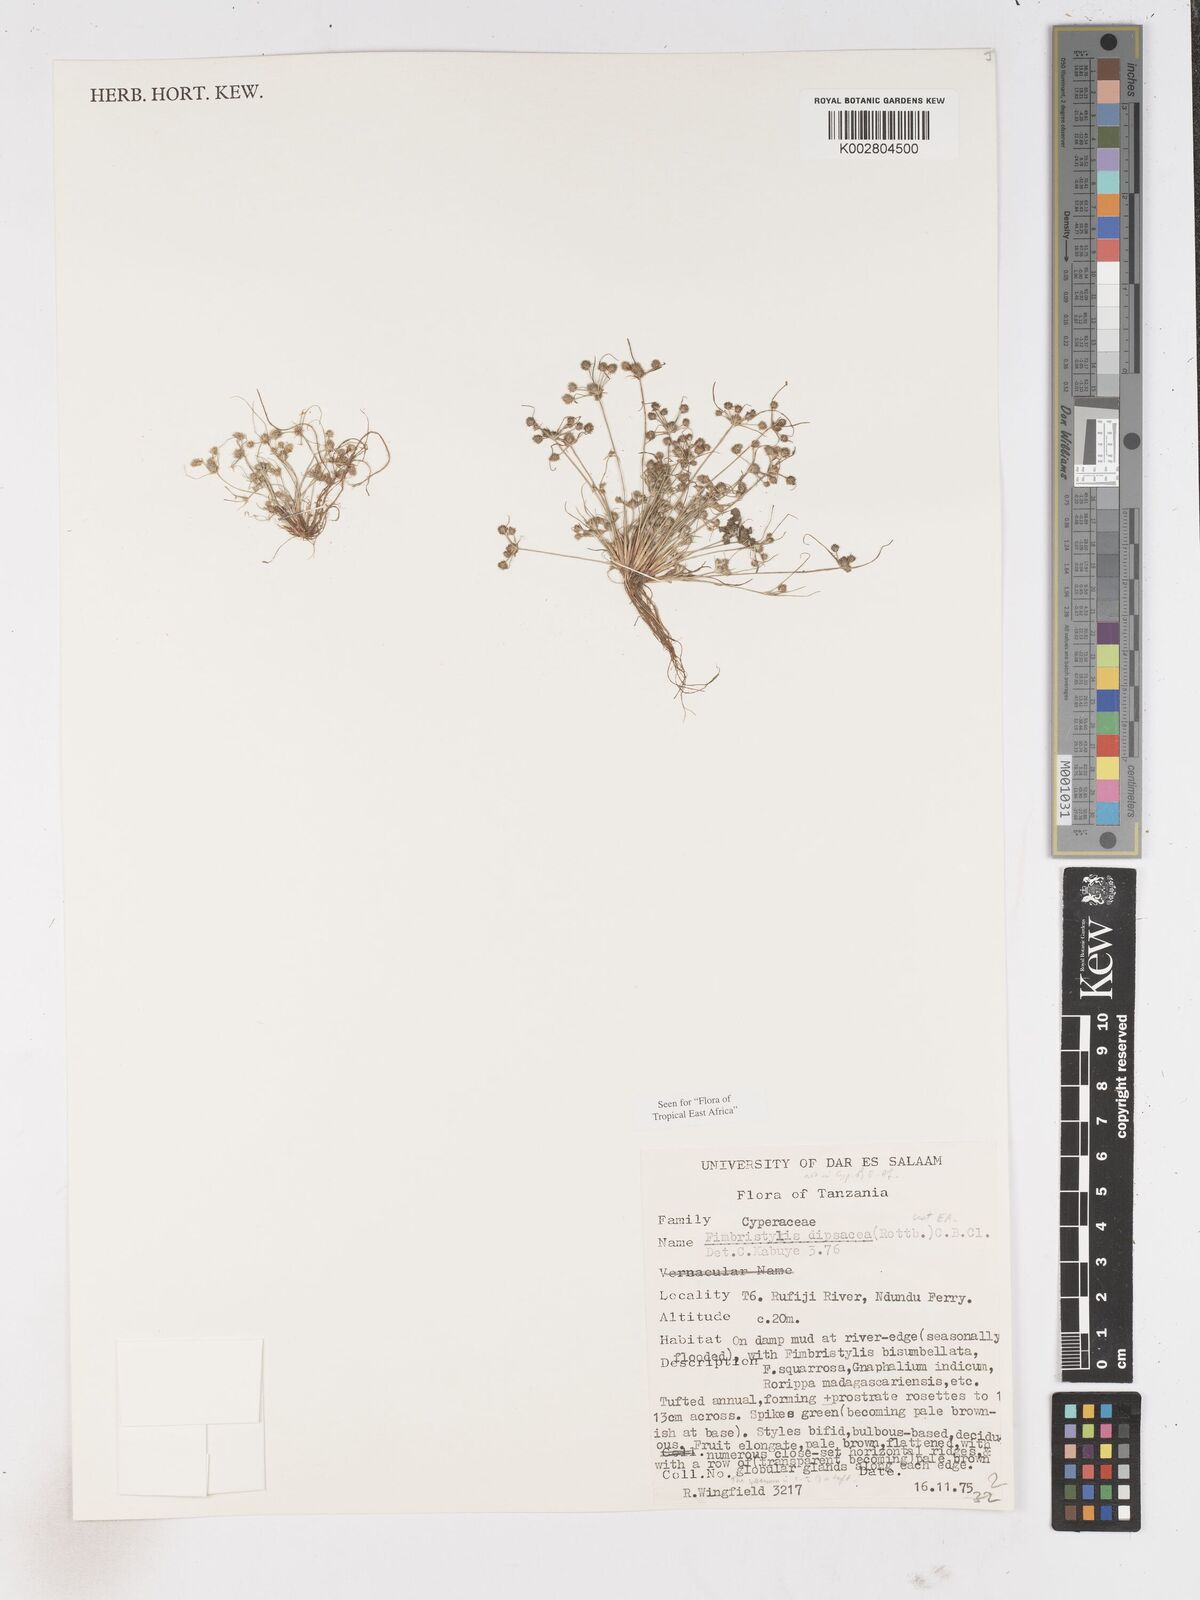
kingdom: Plantae
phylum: Tracheophyta
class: Liliopsida
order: Poales
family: Cyperaceae
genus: Fimbristylis
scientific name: Fimbristylis dipsacea
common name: Harper's fimbristylis
